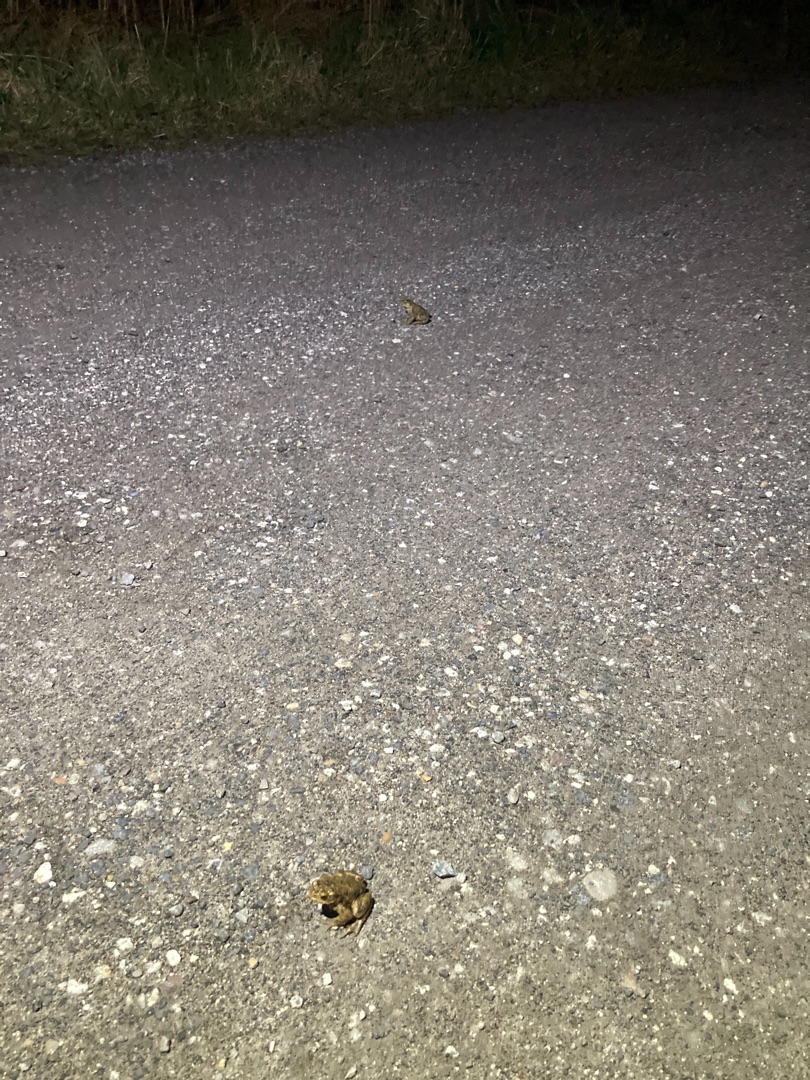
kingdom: Animalia
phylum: Chordata
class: Amphibia
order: Anura
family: Bufonidae
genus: Bufo
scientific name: Bufo bufo
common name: Skrubtudse
